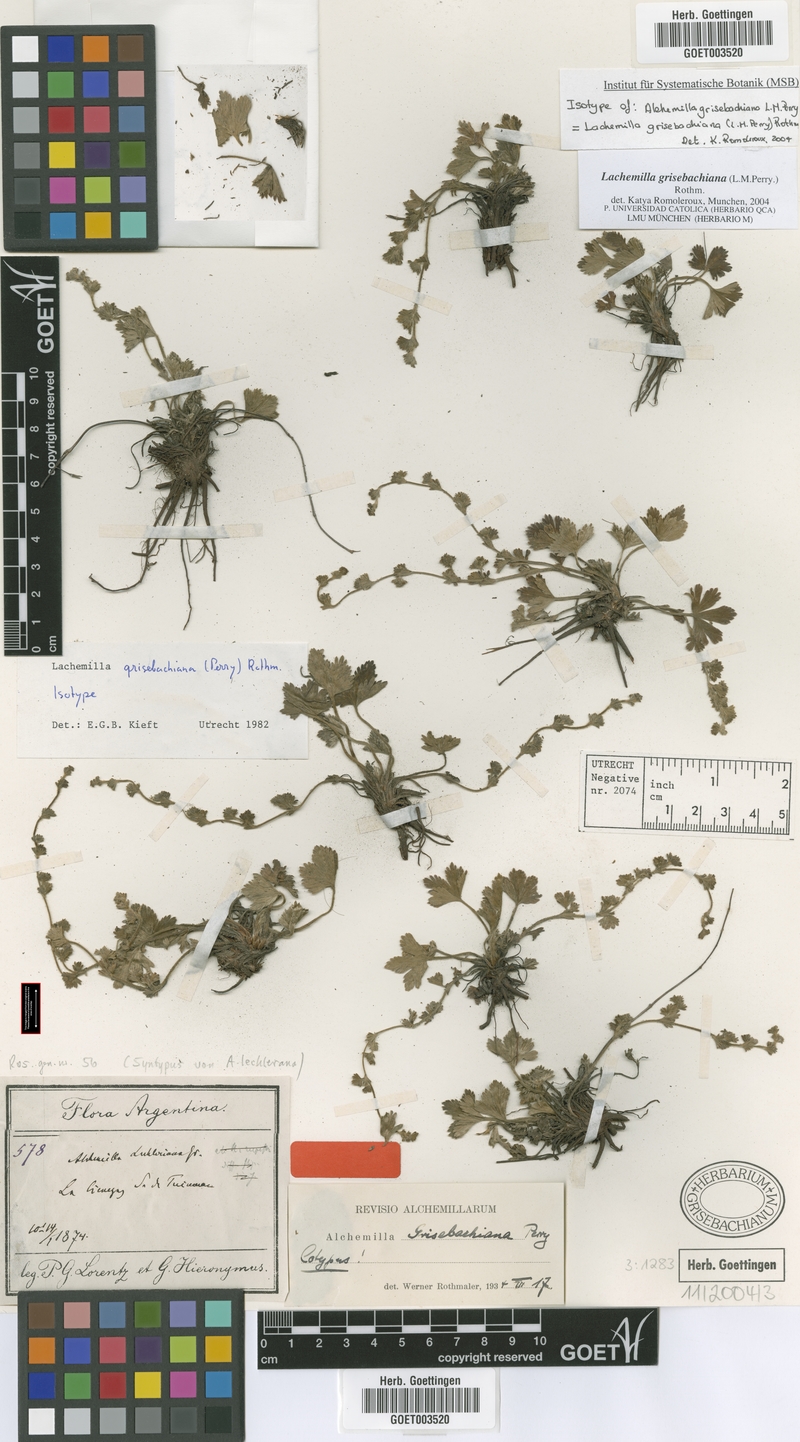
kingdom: Plantae
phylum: Tracheophyta
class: Magnoliopsida
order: Rosales
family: Rosaceae
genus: Lachemilla
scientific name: Lachemilla grisebachiana
